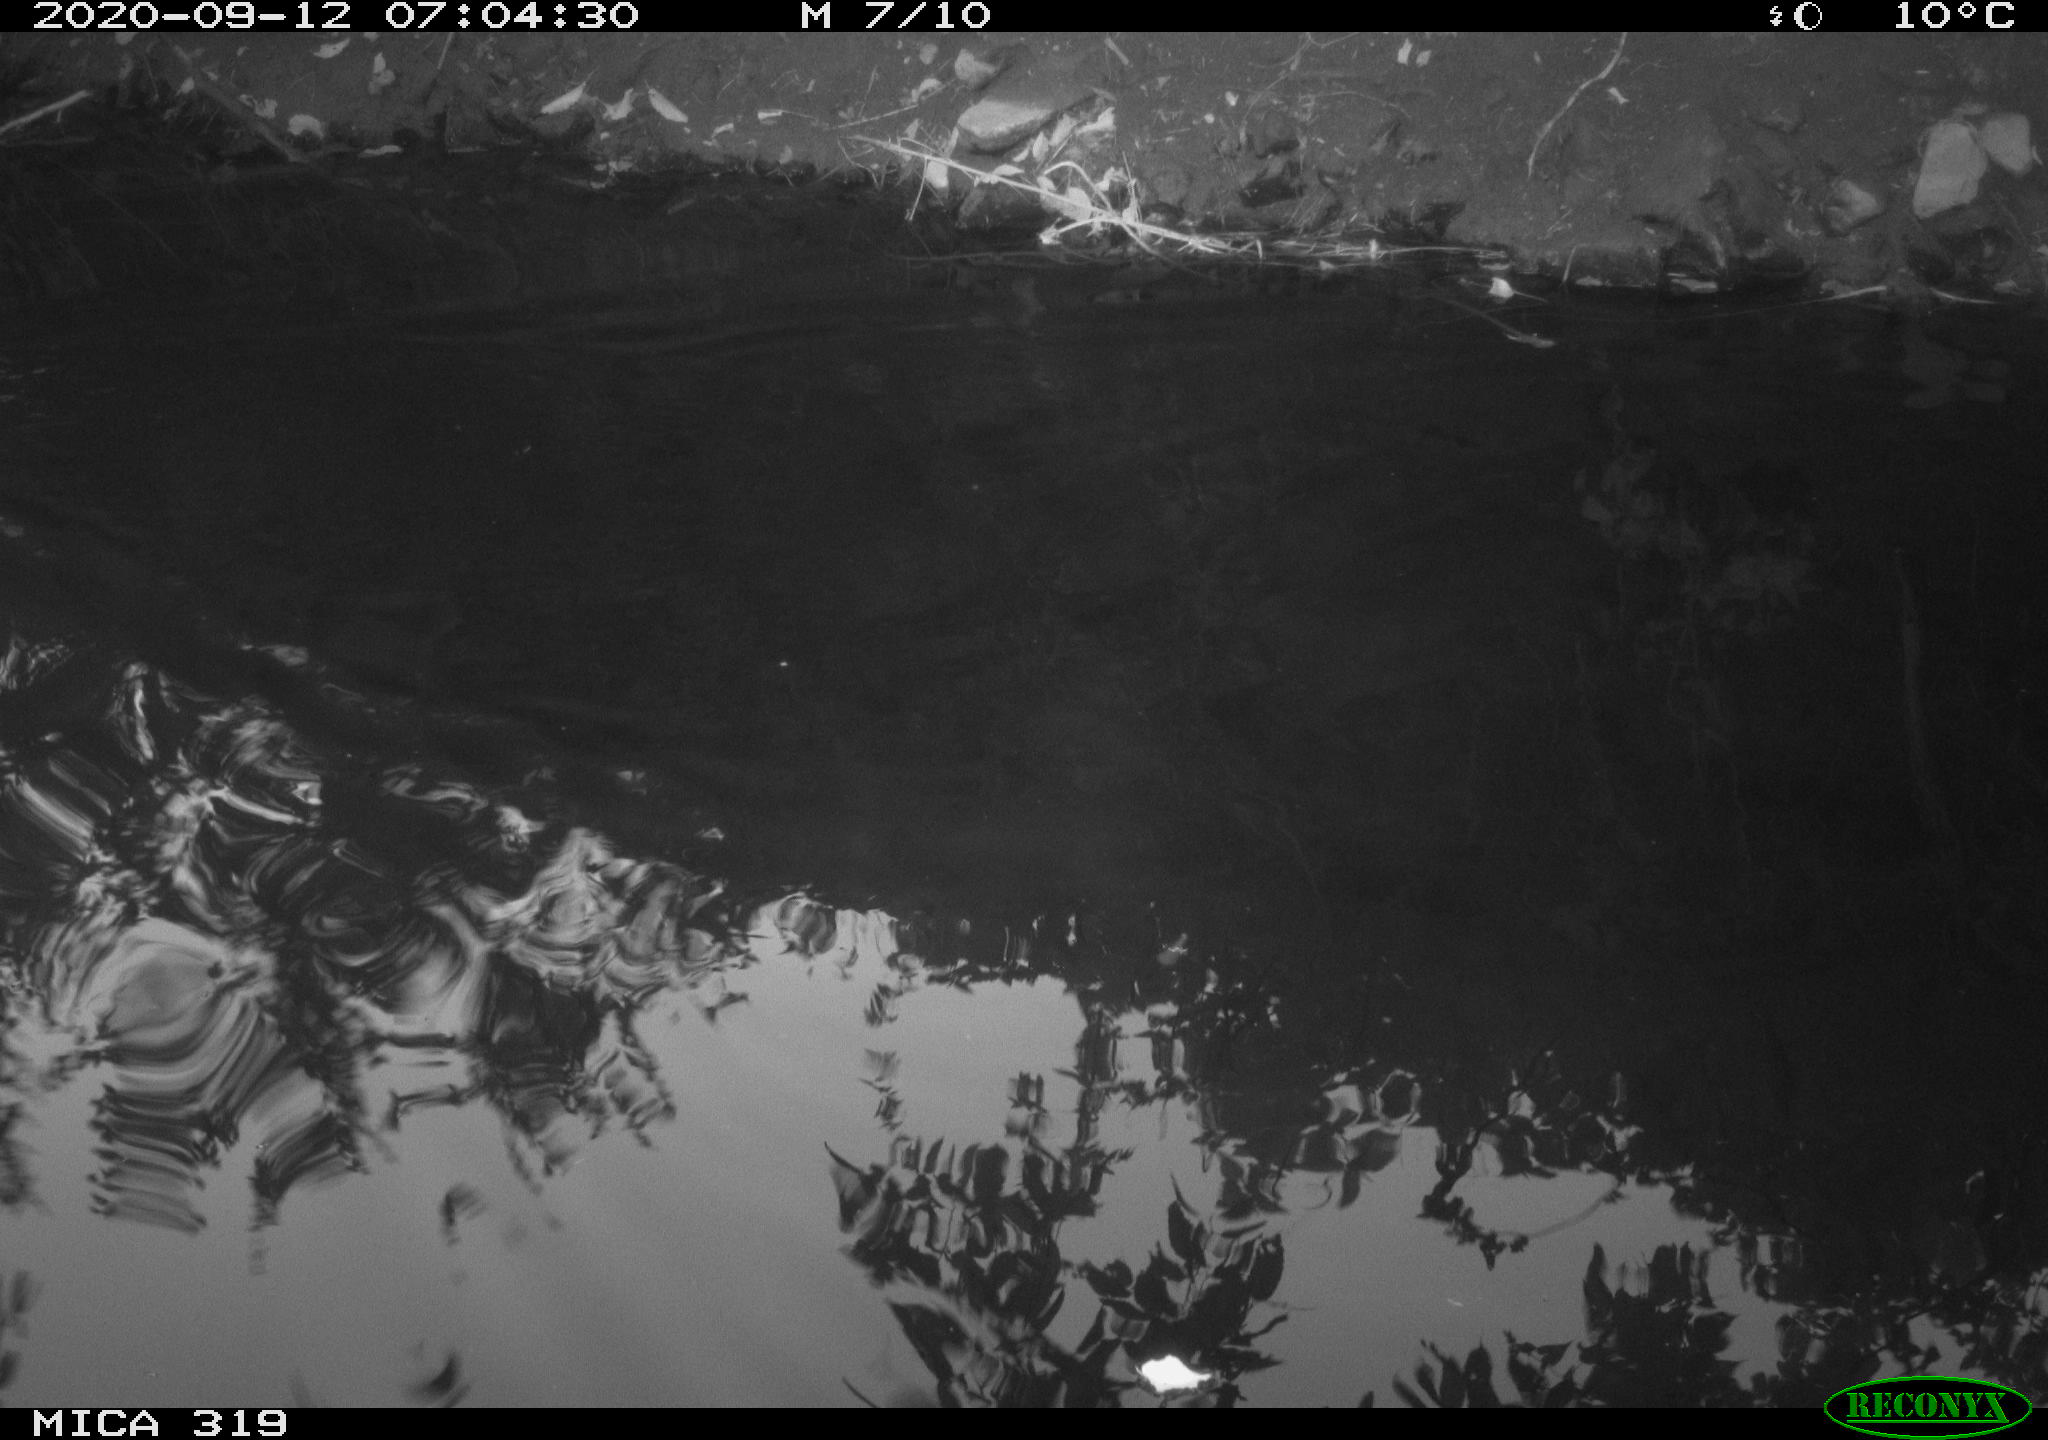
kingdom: Animalia
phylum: Chordata
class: Aves
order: Anseriformes
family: Anatidae
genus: Anas
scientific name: Anas platyrhynchos
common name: Mallard
